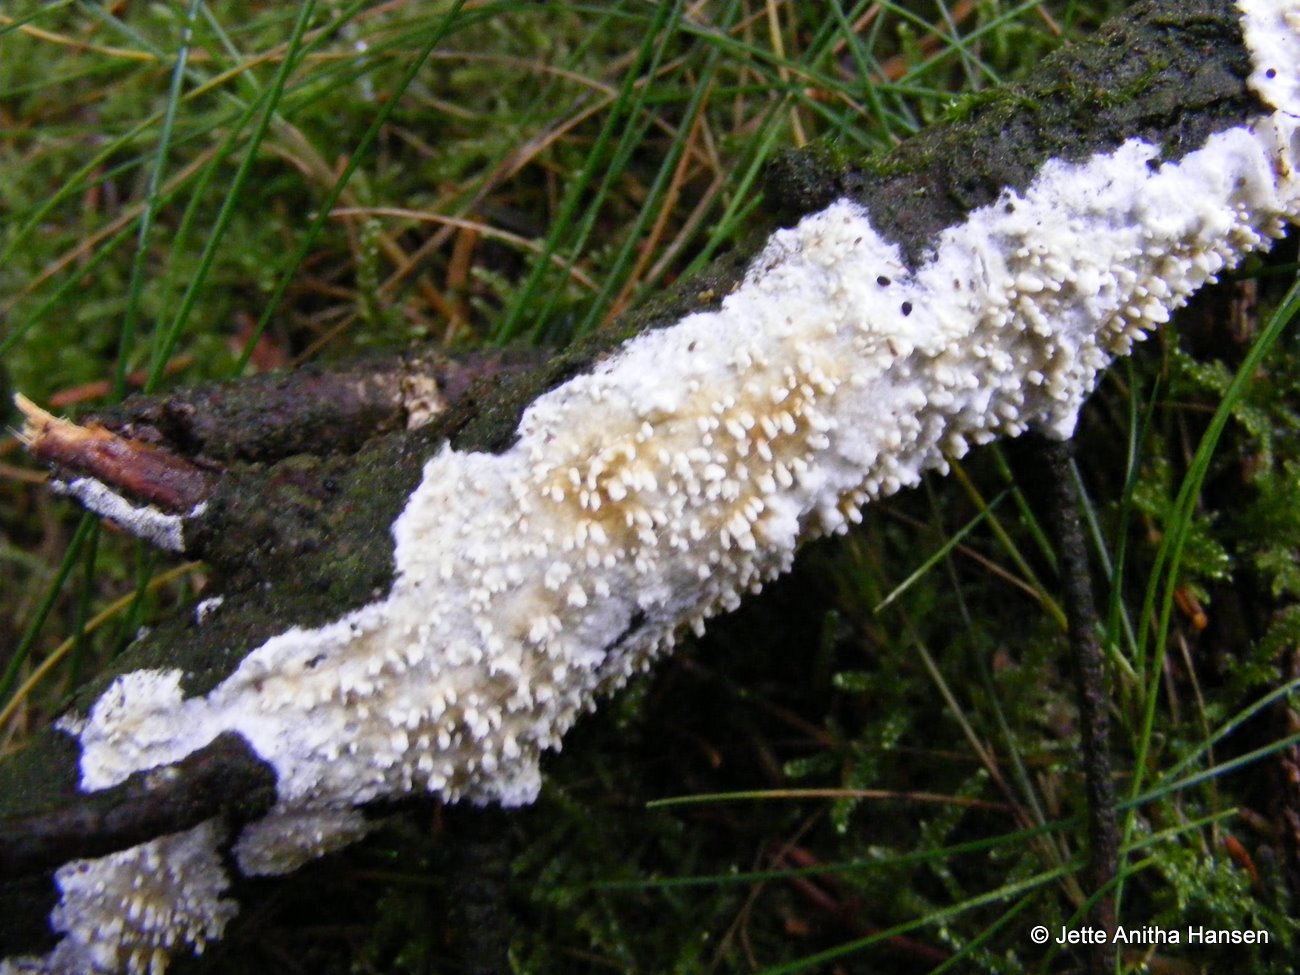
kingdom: Fungi
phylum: Basidiomycota
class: Agaricomycetes
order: Hymenochaetales
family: Schizoporaceae
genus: Xylodon
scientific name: Xylodon radula
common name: grovtandet kalkskind
